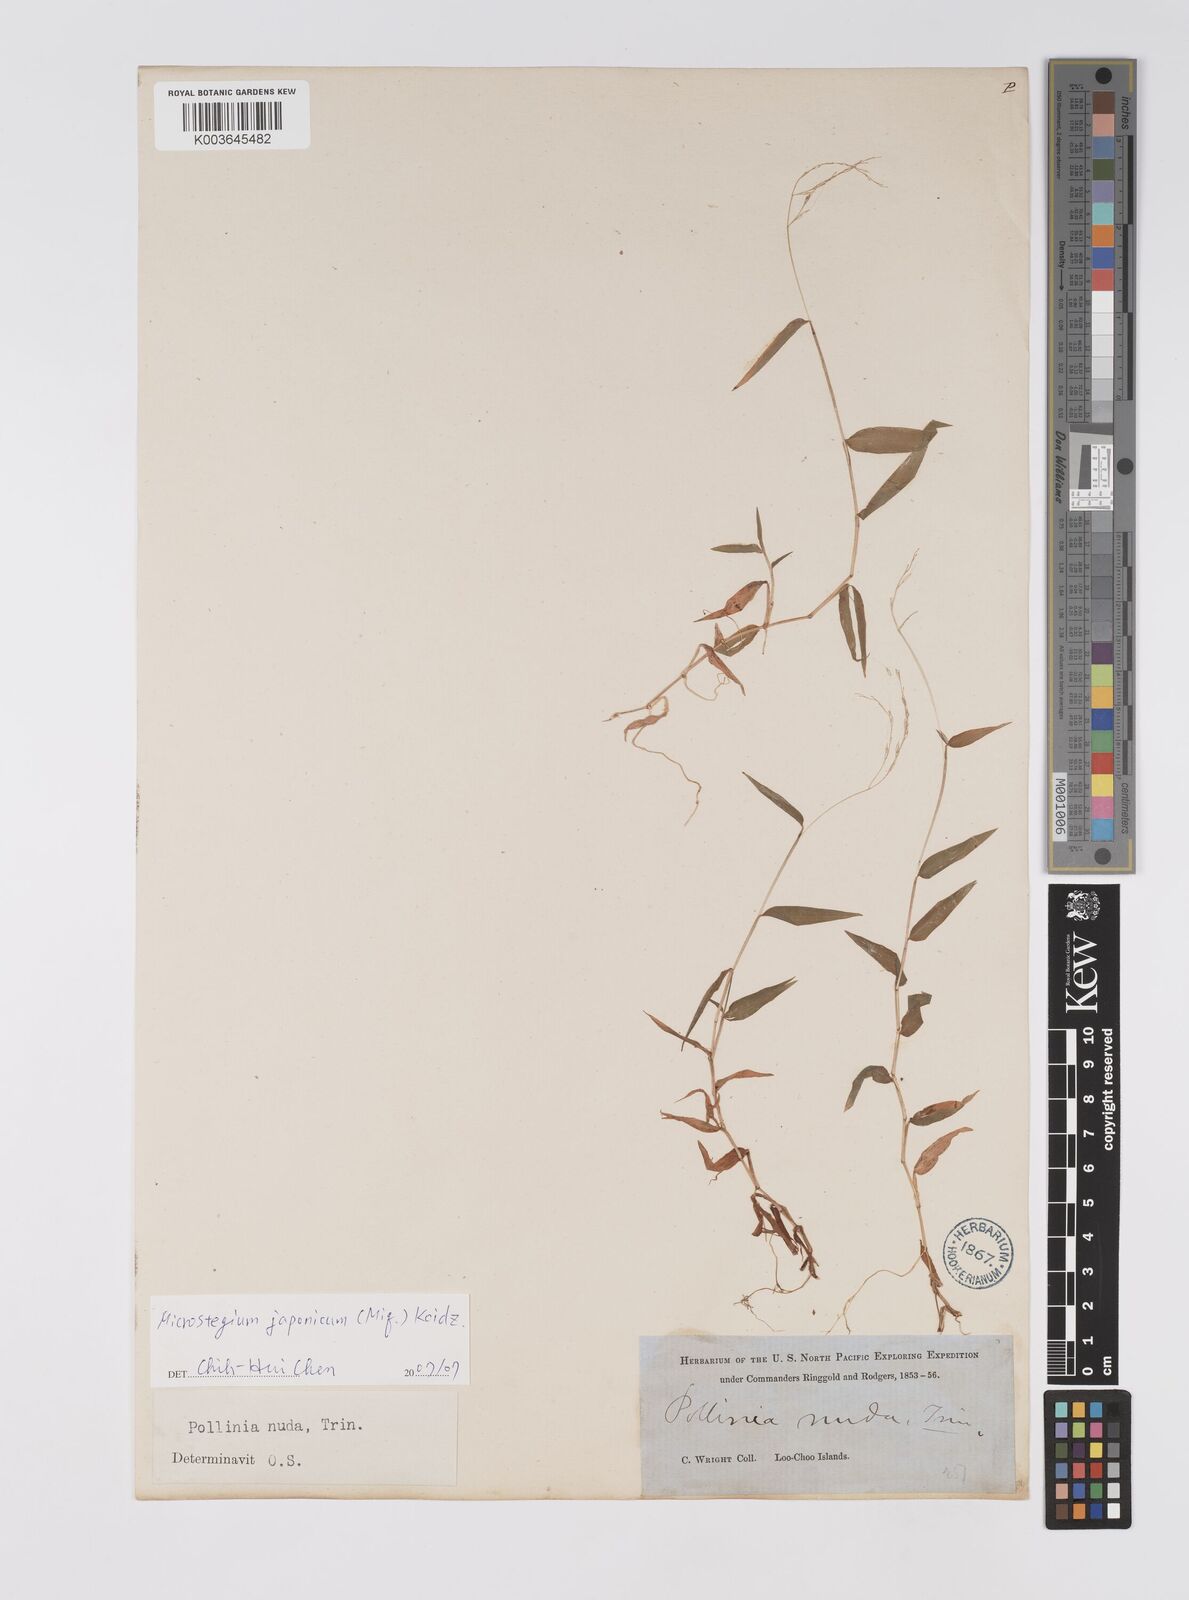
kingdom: Plantae
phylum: Tracheophyta
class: Liliopsida
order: Poales
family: Poaceae
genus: Microstegium
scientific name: Microstegium japonicum
